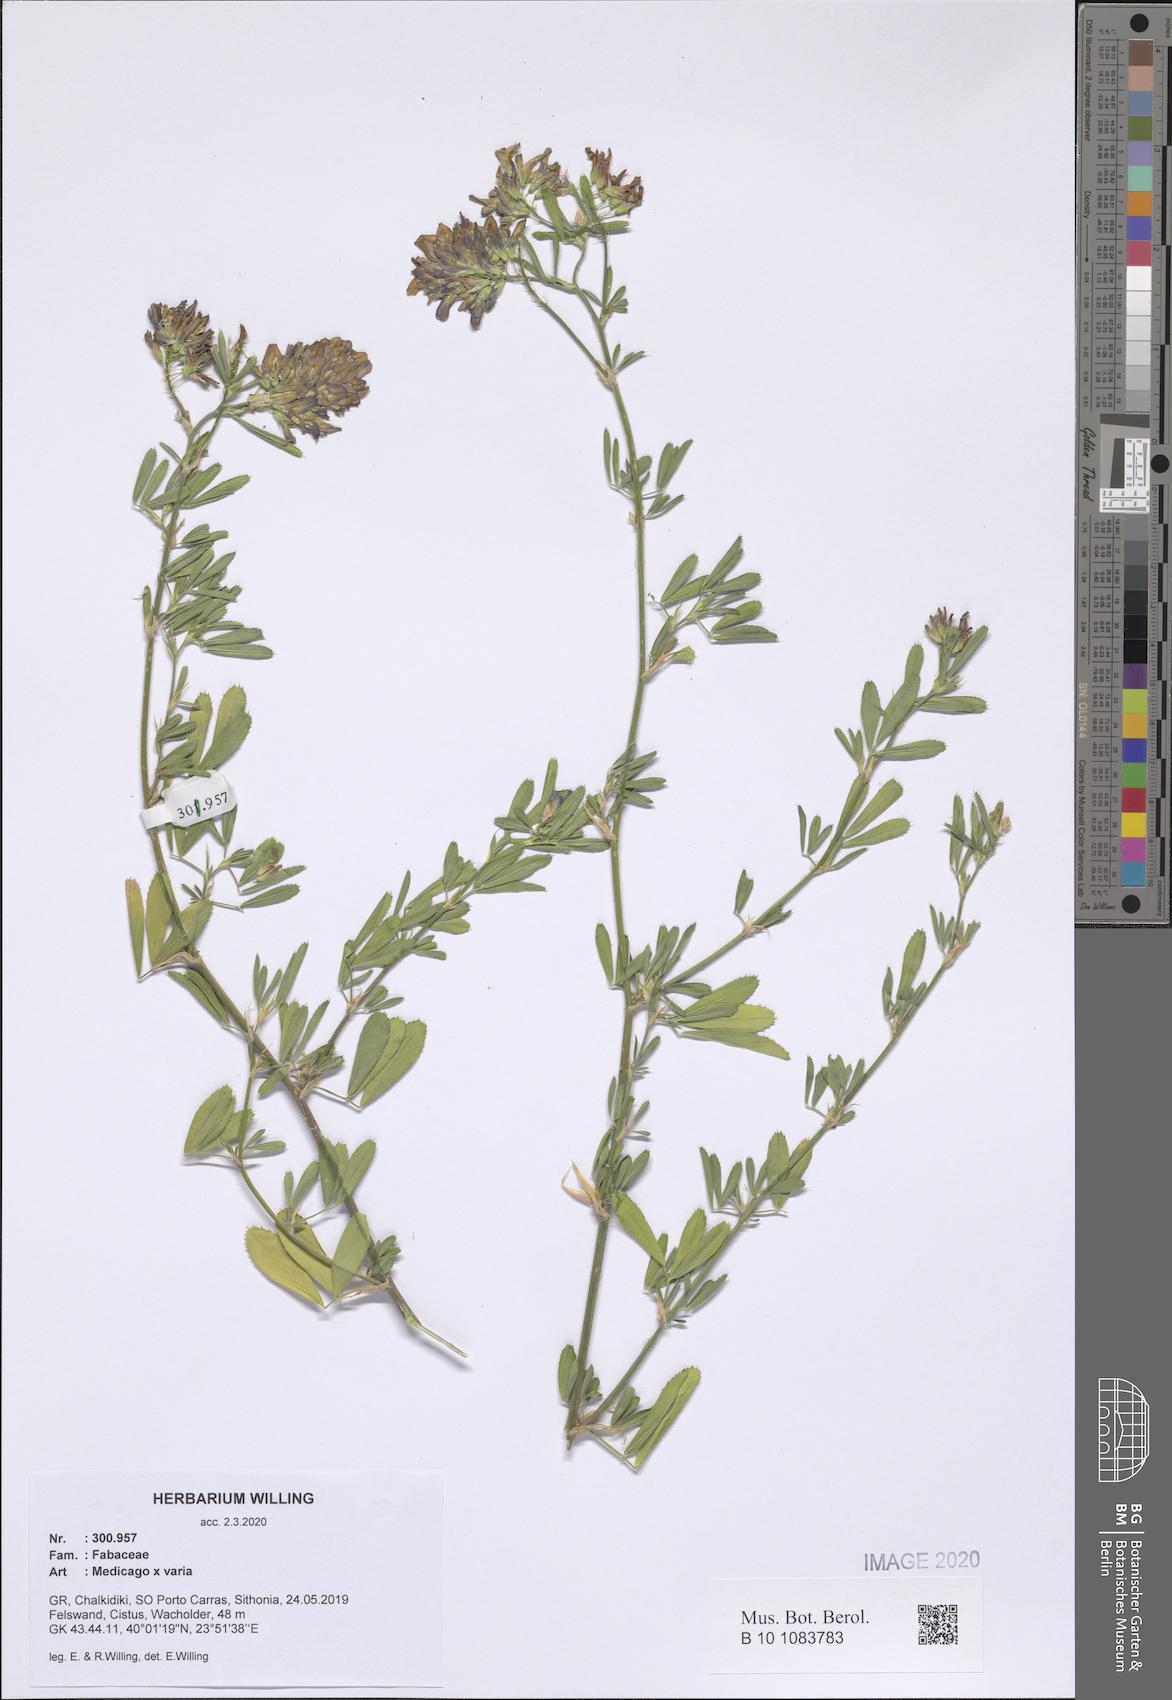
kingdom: Plantae
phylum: Tracheophyta
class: Magnoliopsida
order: Fabales
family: Fabaceae
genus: Medicago
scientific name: Medicago varia
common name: Sand lucerne
